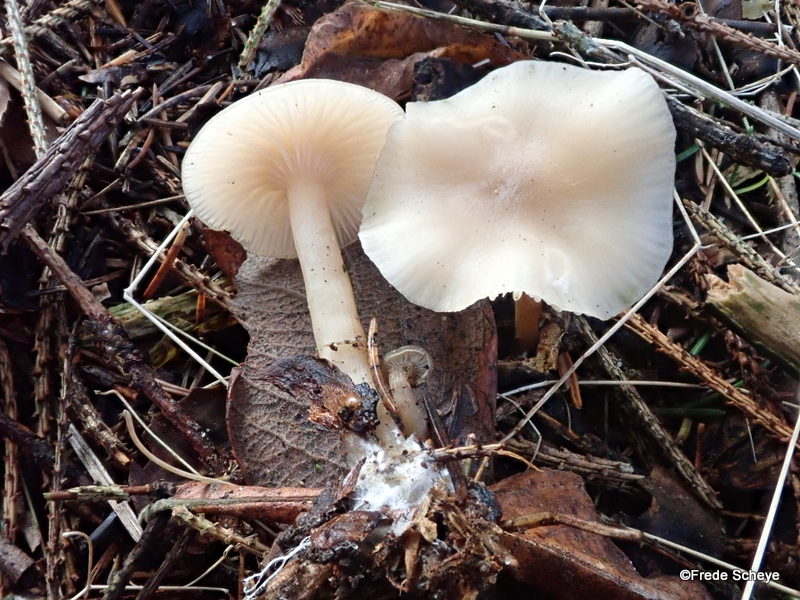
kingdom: Fungi
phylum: Basidiomycota
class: Agaricomycetes
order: Agaricales
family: Tricholomataceae
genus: Clitocybe
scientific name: Clitocybe fragrans
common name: vellugtende tragthat
